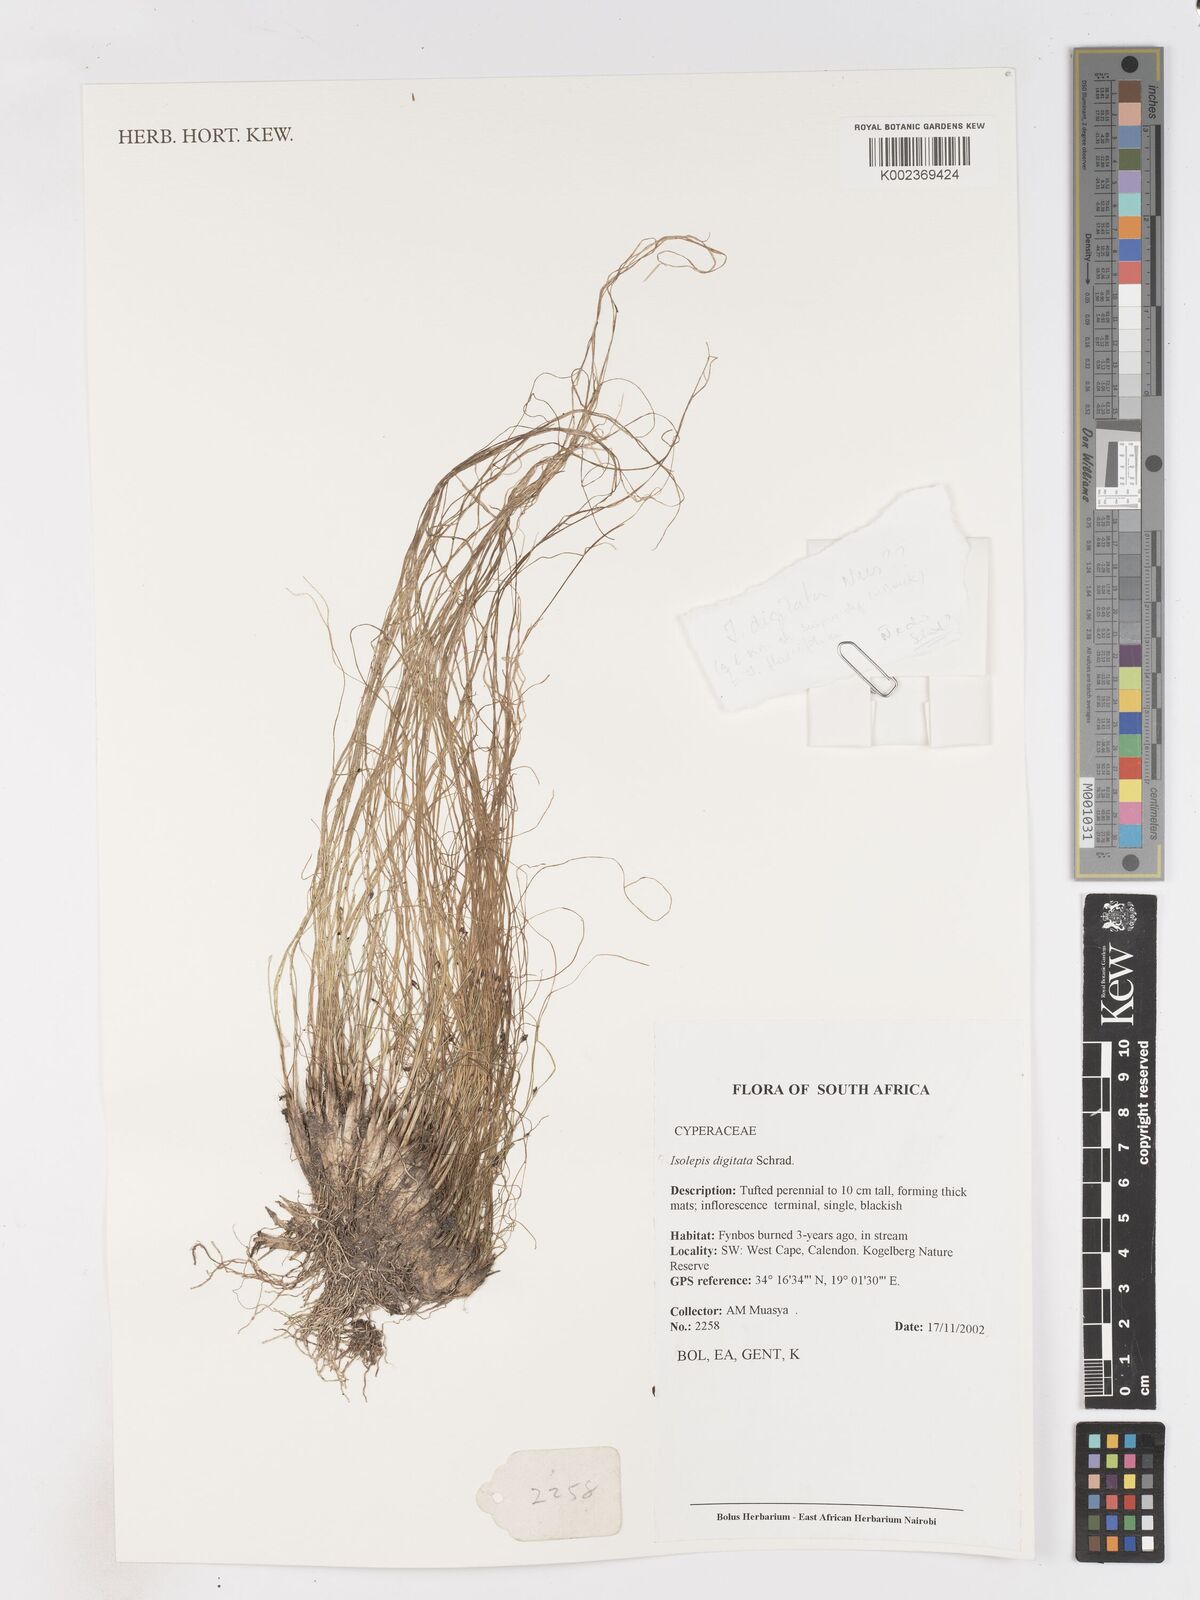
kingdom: Plantae
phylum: Tracheophyta
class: Liliopsida
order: Poales
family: Cyperaceae
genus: Isolepis
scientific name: Isolepis digitata
